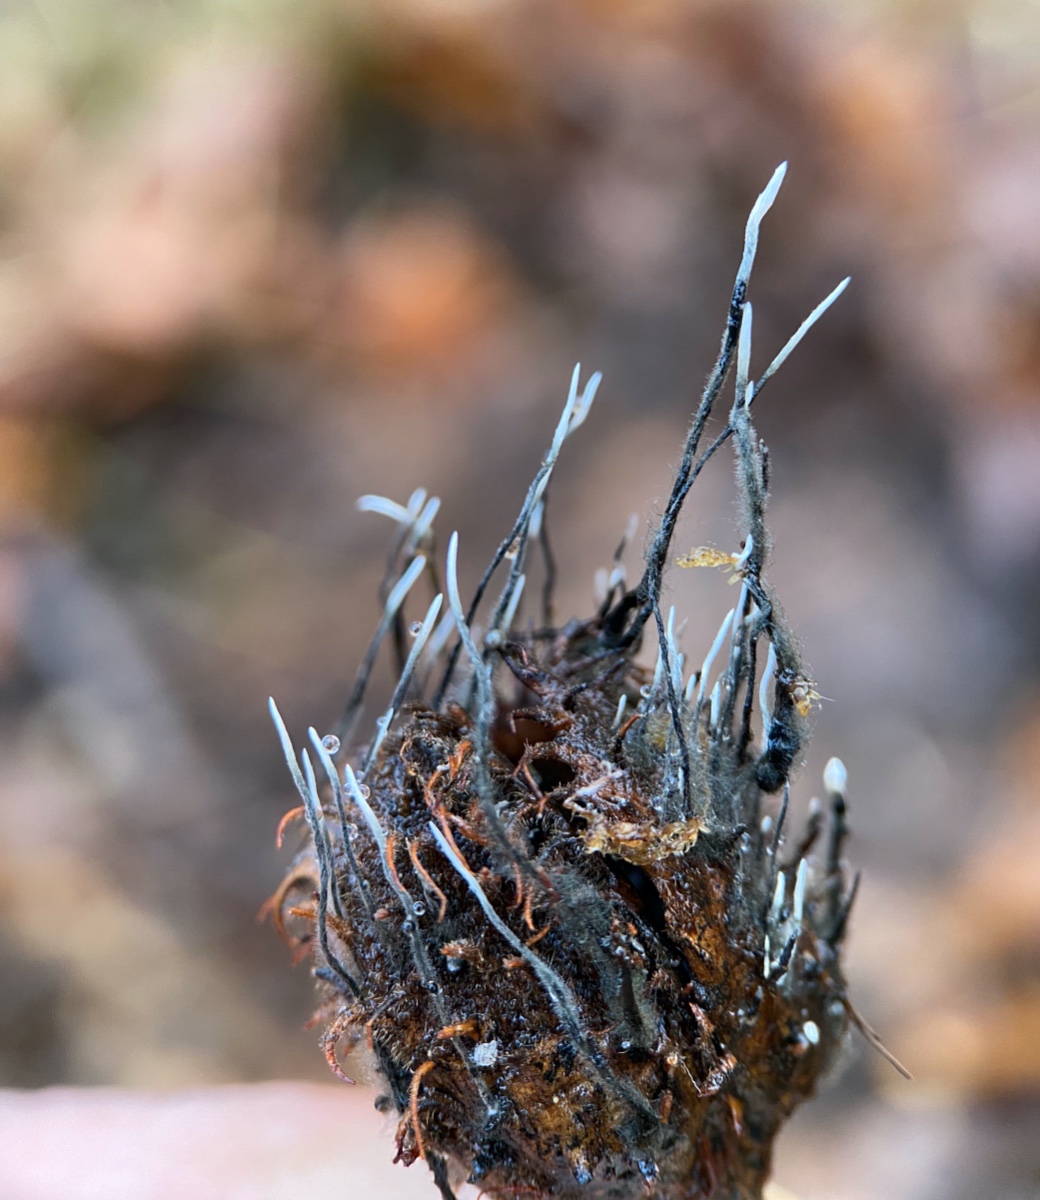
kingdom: Fungi
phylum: Ascomycota
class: Sordariomycetes
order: Xylariales
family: Xylariaceae
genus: Xylaria
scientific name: Xylaria carpophila
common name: bogskål-stødsvamp
